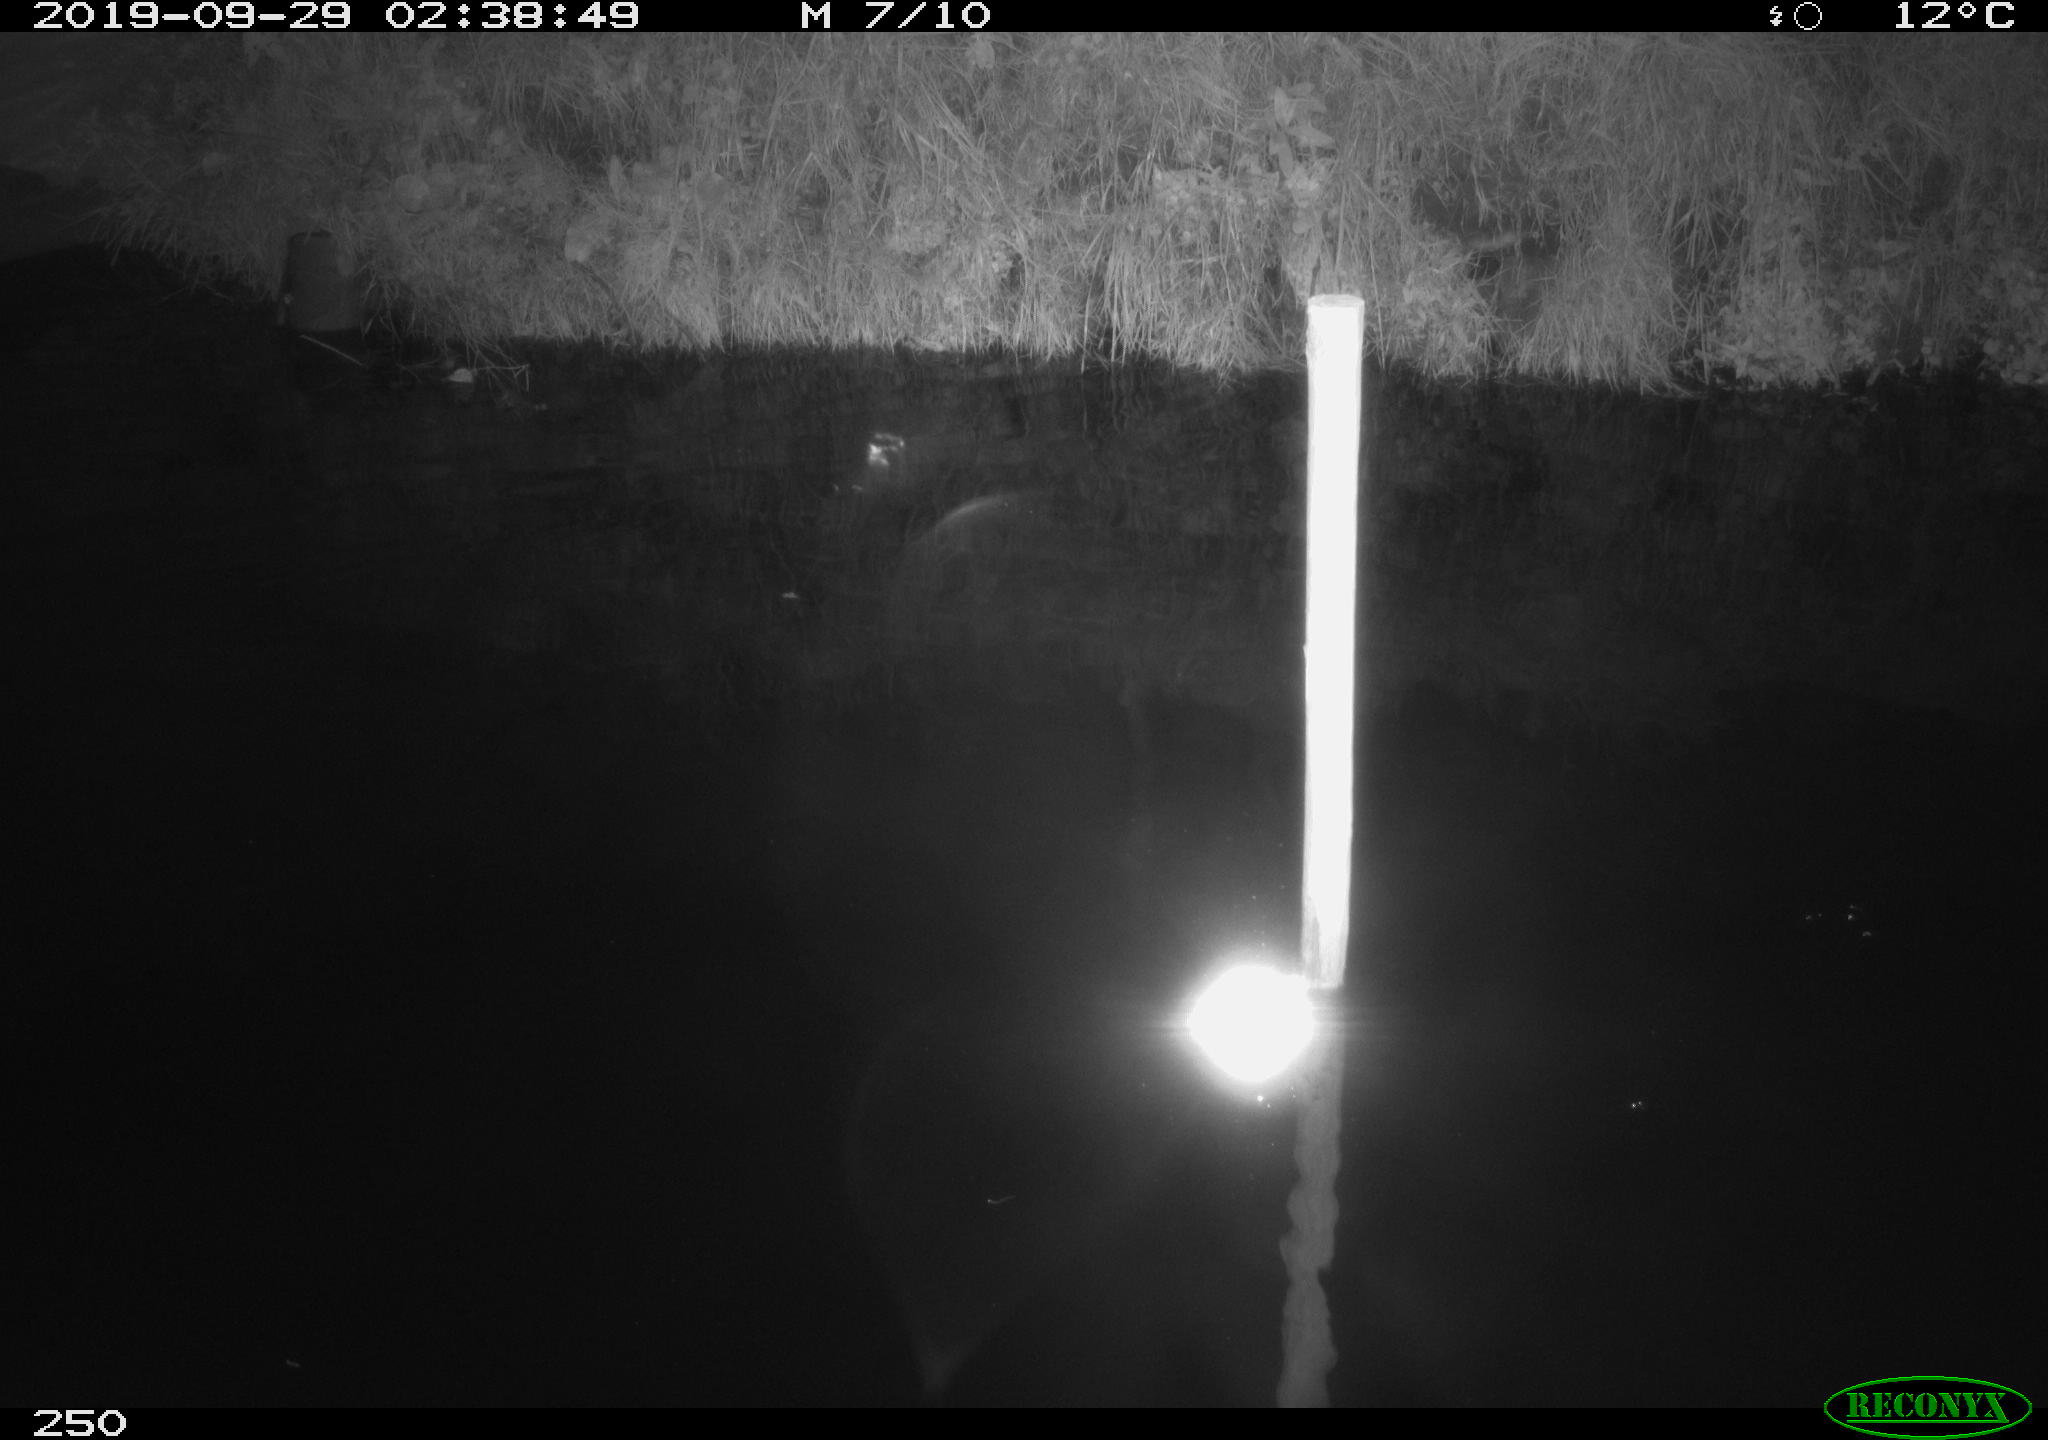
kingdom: Animalia
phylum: Chordata
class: Aves
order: Anseriformes
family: Anatidae
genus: Anas
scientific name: Anas platyrhynchos
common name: Mallard
